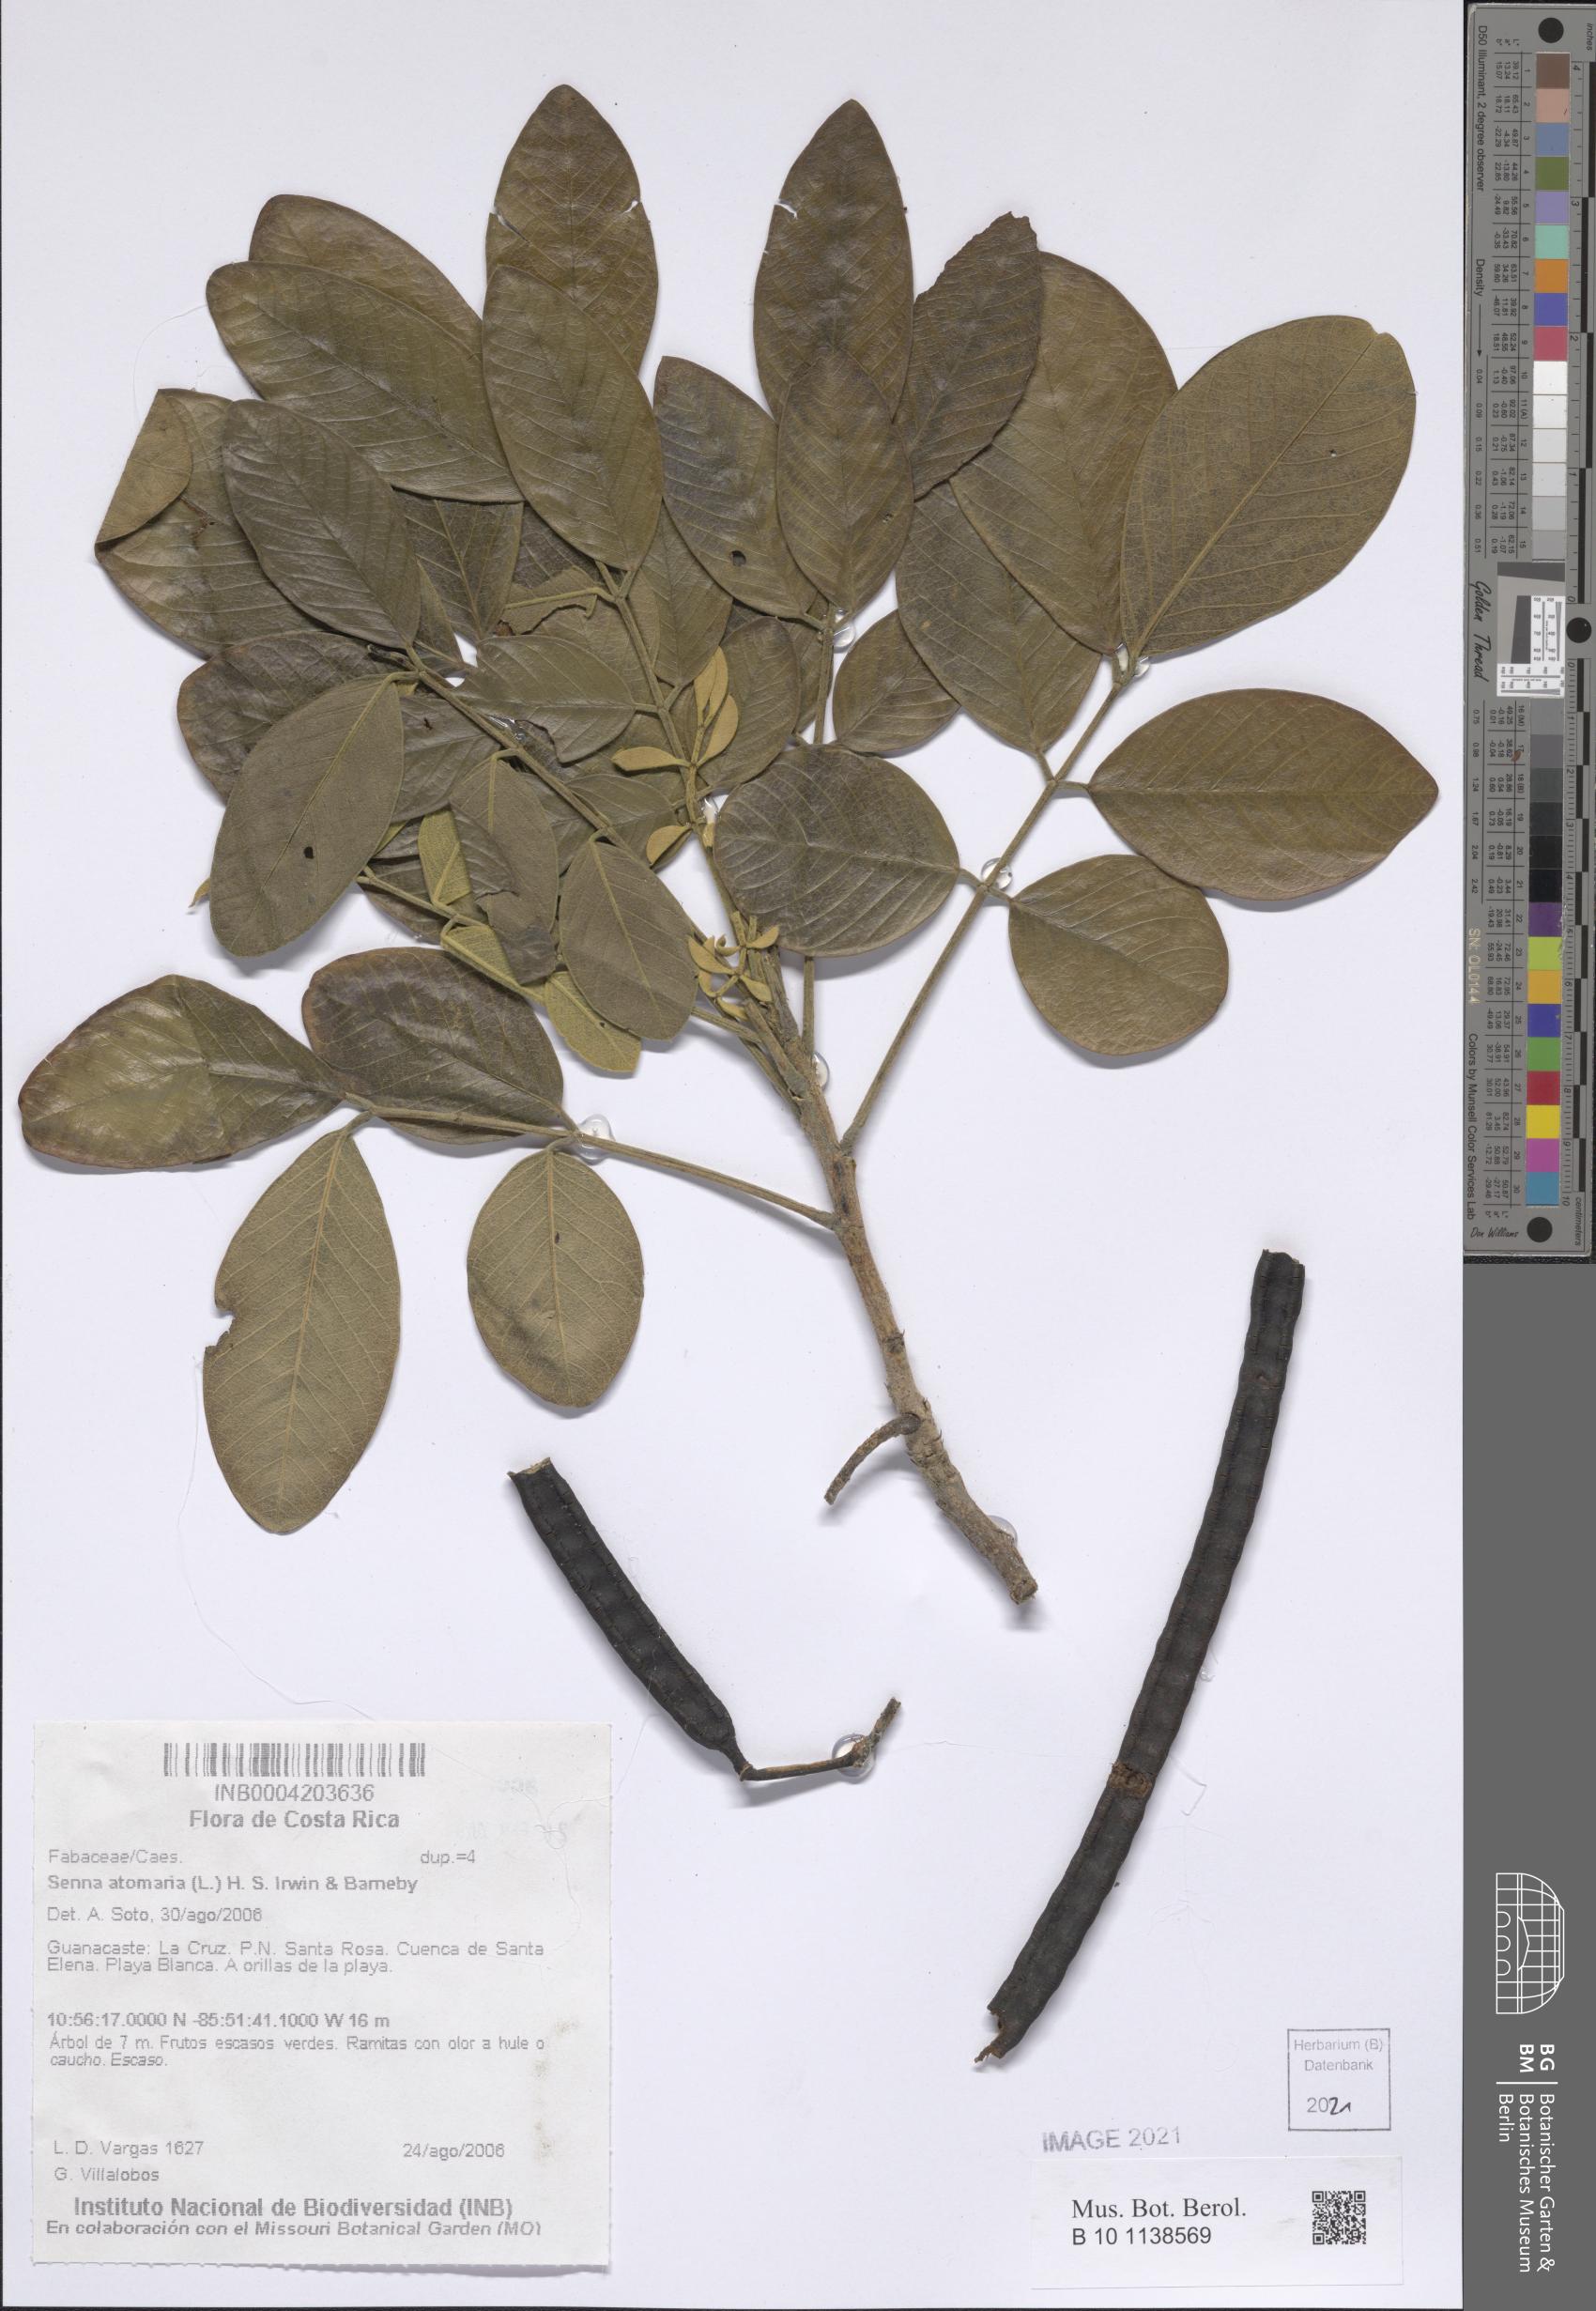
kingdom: Plantae
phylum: Tracheophyta
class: Magnoliopsida
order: Fabales
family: Fabaceae
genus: Senna
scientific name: Senna atomaria
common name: Flor de san jose
